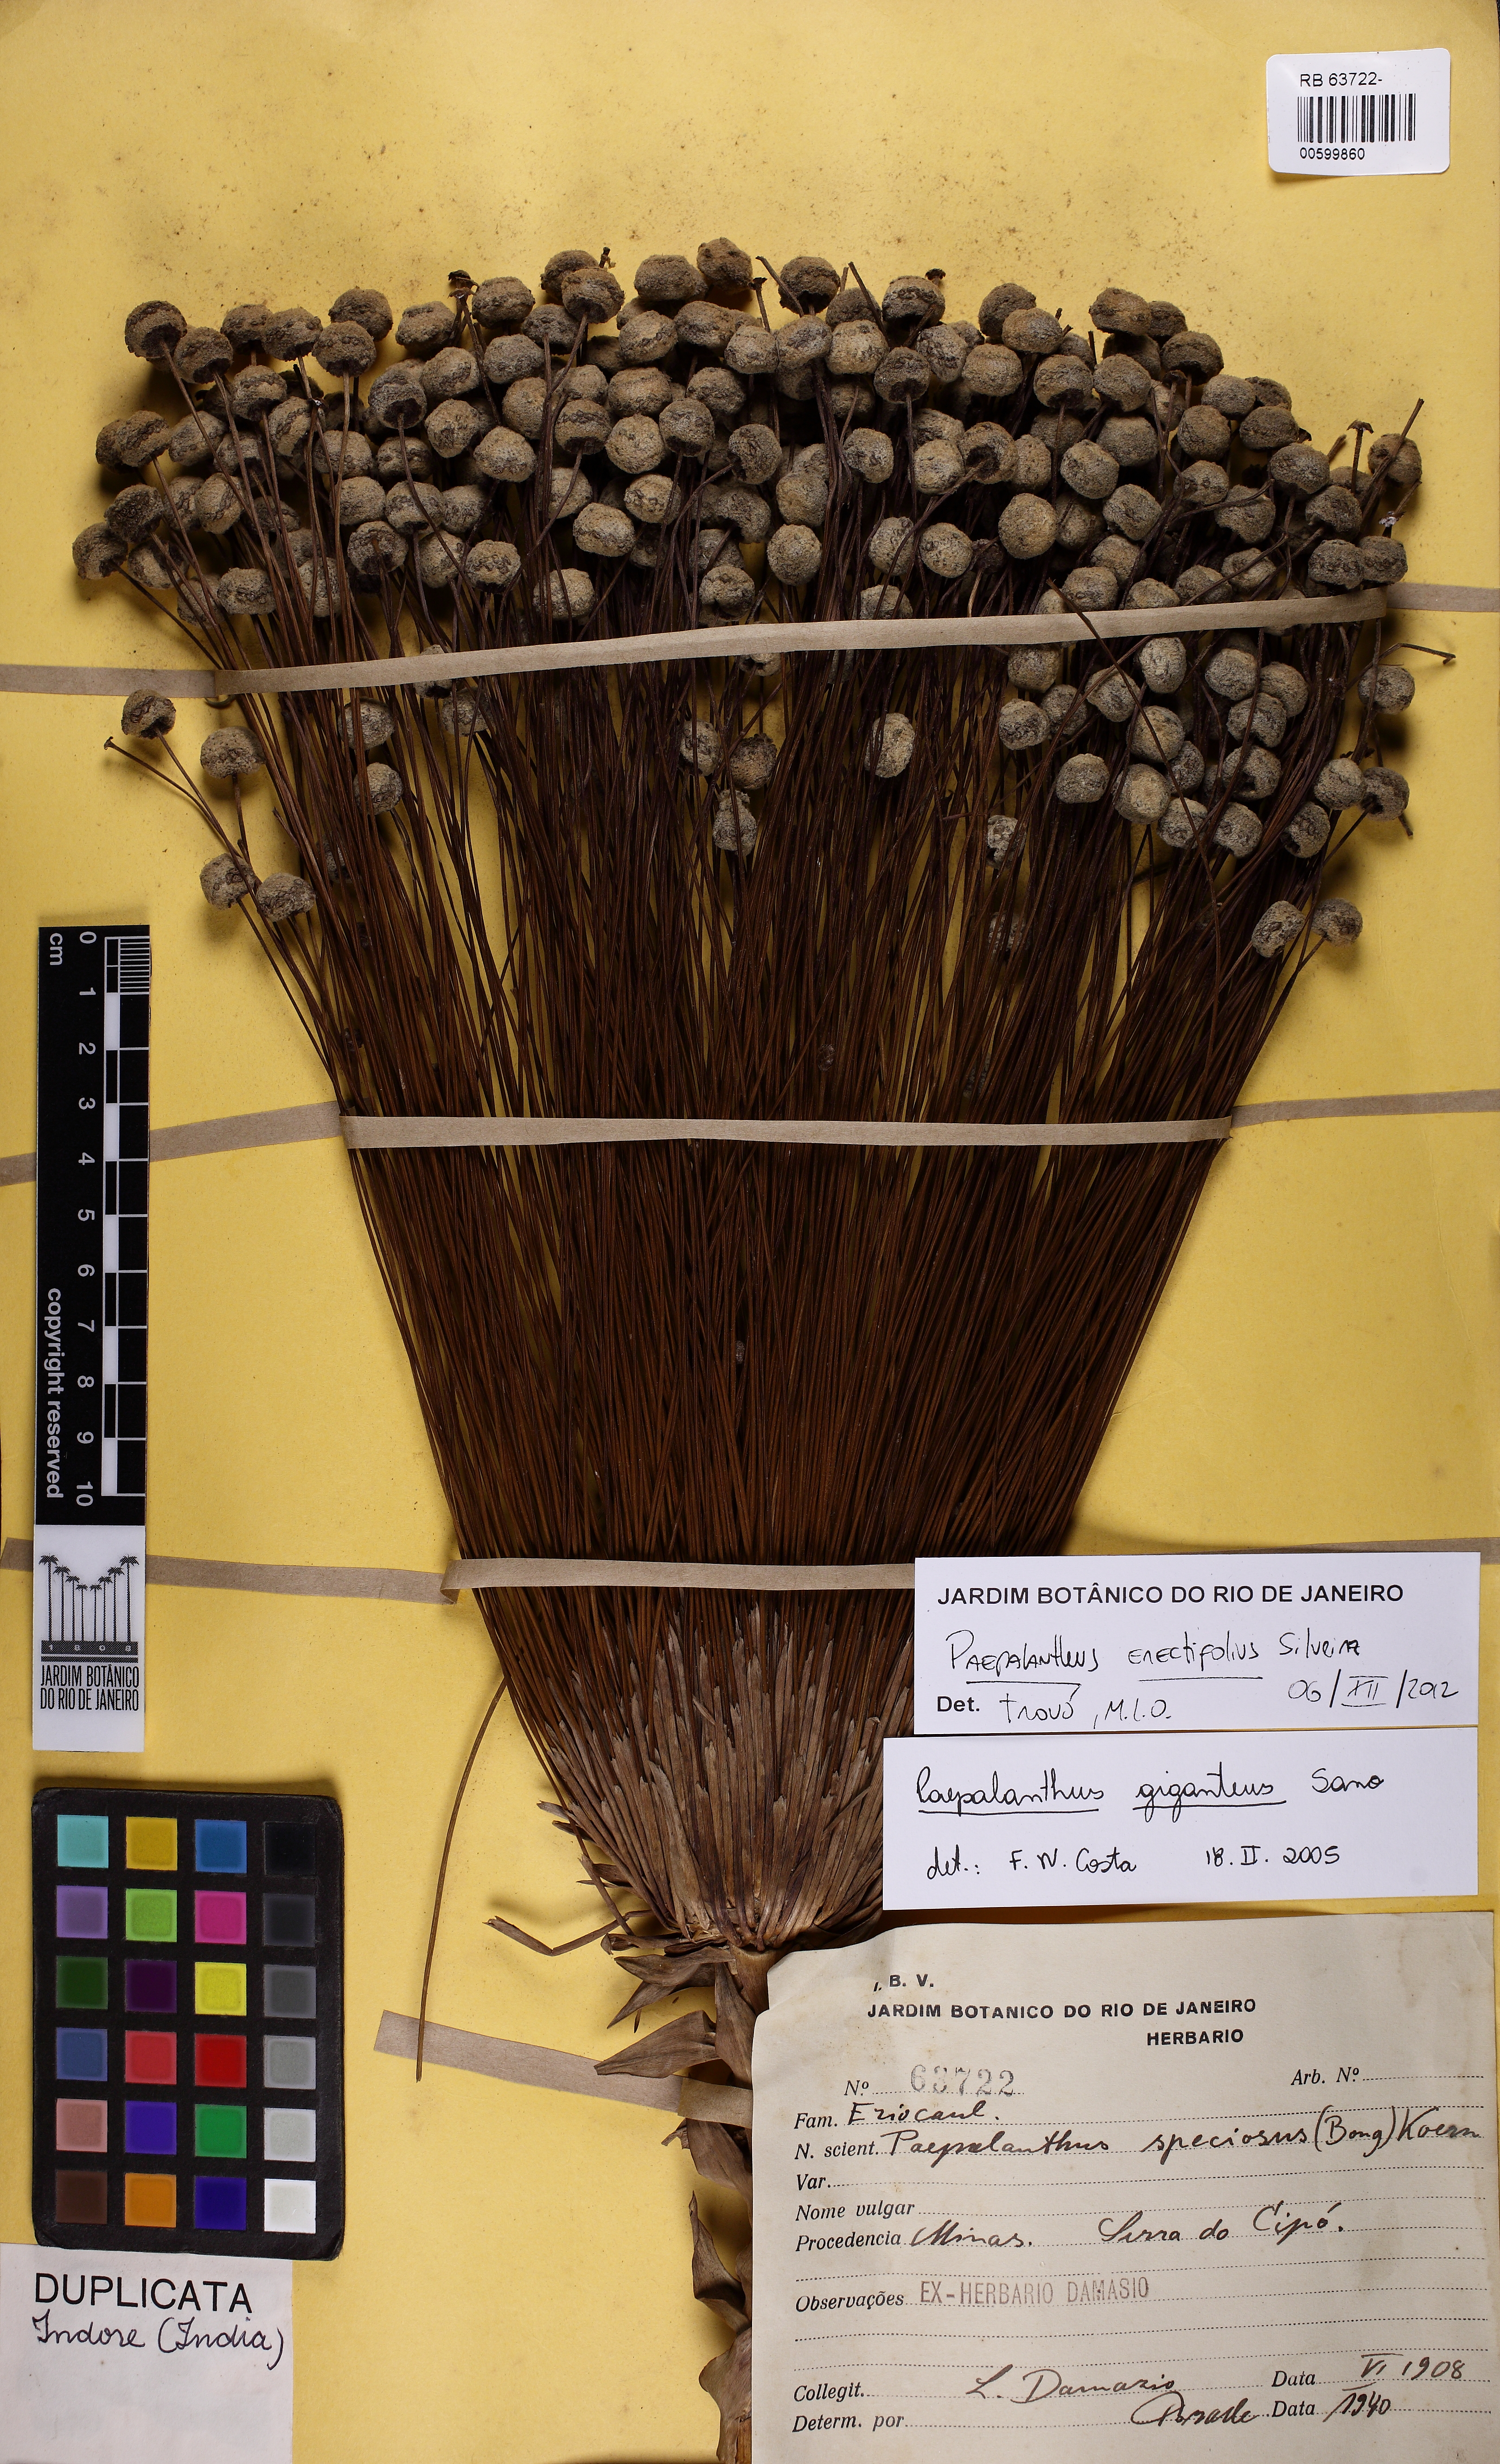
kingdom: Plantae
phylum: Tracheophyta
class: Liliopsida
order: Poales
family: Eriocaulaceae
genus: Paepalanthus
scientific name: Paepalanthus erectifolius
